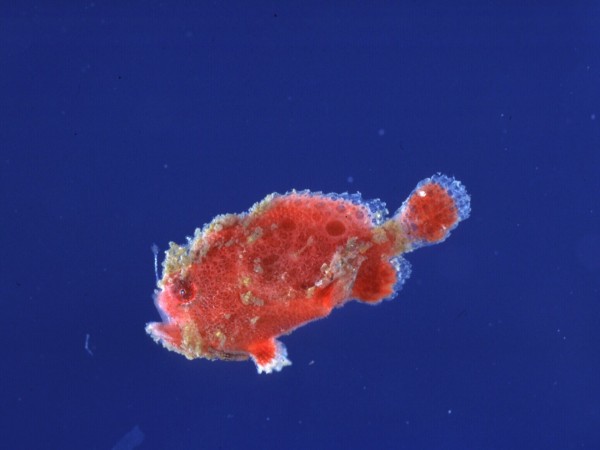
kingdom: Animalia
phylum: Chordata
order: Lophiiformes
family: Antennariidae
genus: Antennatus
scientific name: Antennatus coccineus
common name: Scarlet frogfish
